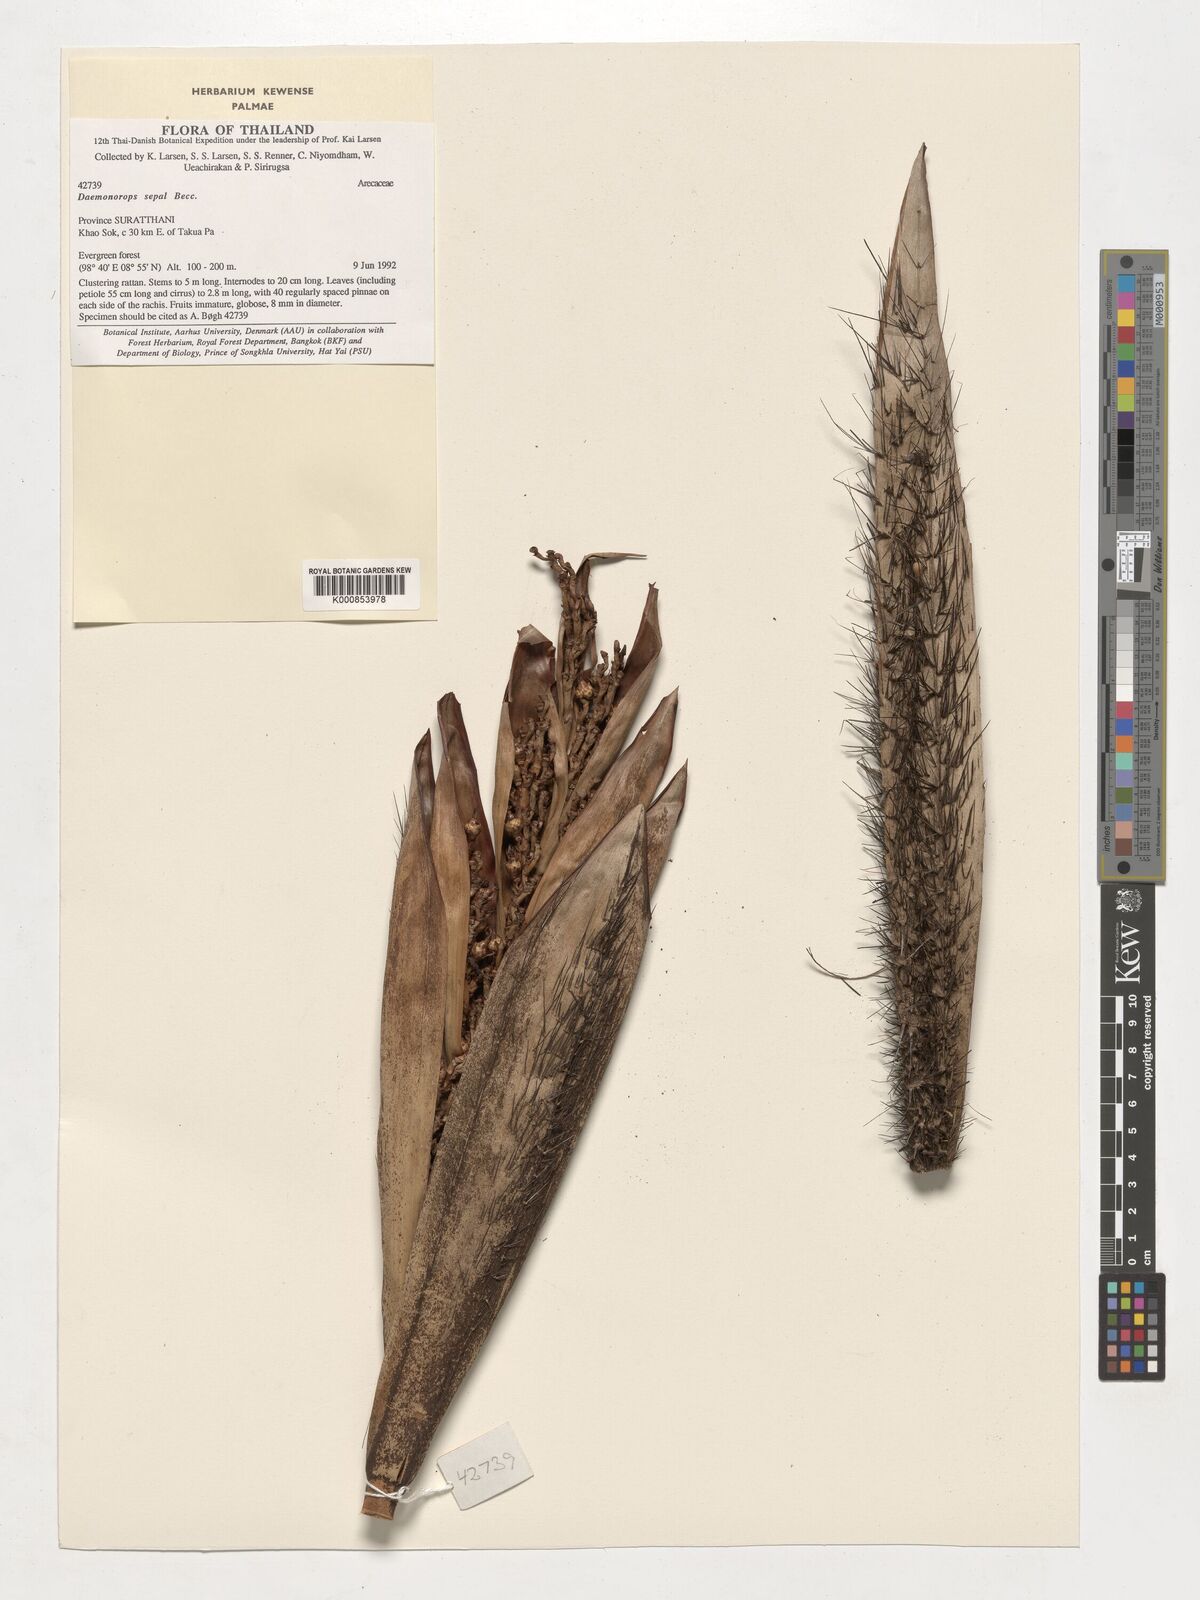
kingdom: Plantae
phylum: Tracheophyta
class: Liliopsida
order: Arecales
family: Arecaceae
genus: Calamus
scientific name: Calamus melanochaetes
